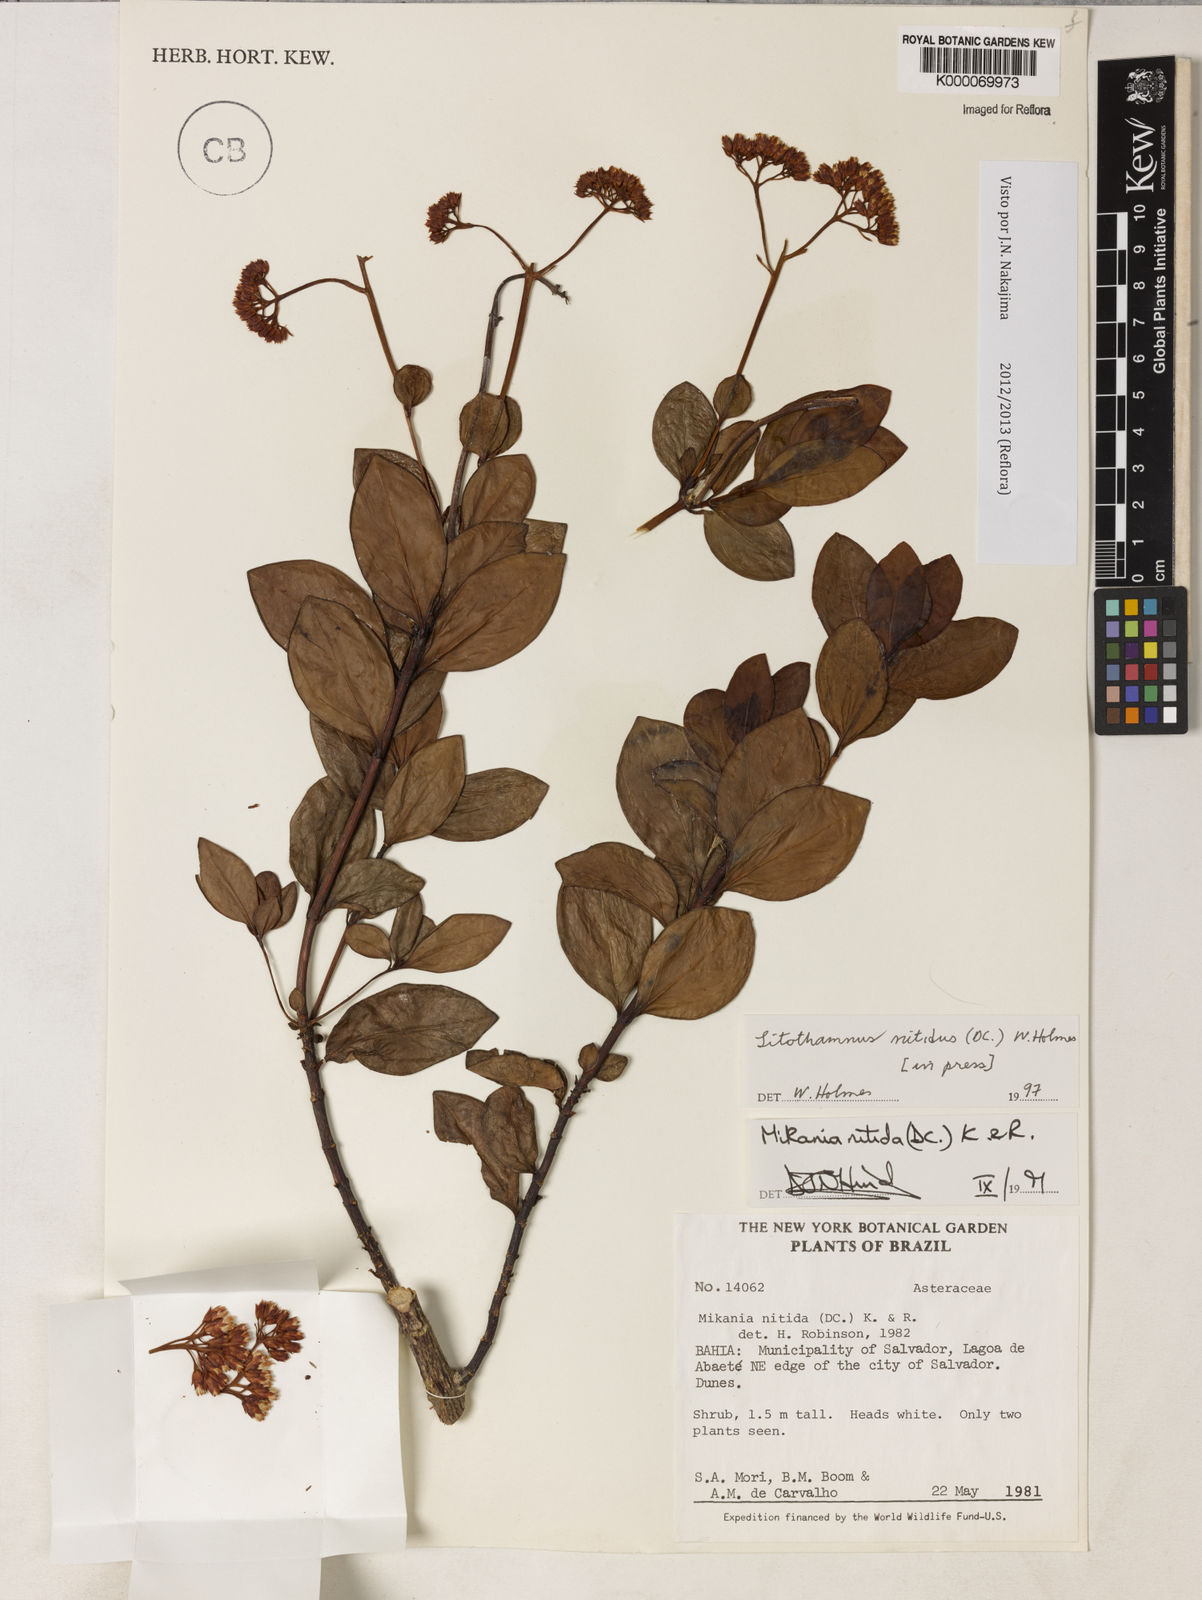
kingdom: Plantae
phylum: Tracheophyta
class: Magnoliopsida
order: Asterales
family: Asteraceae
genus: Litothamnus
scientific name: Litothamnus nitidus
